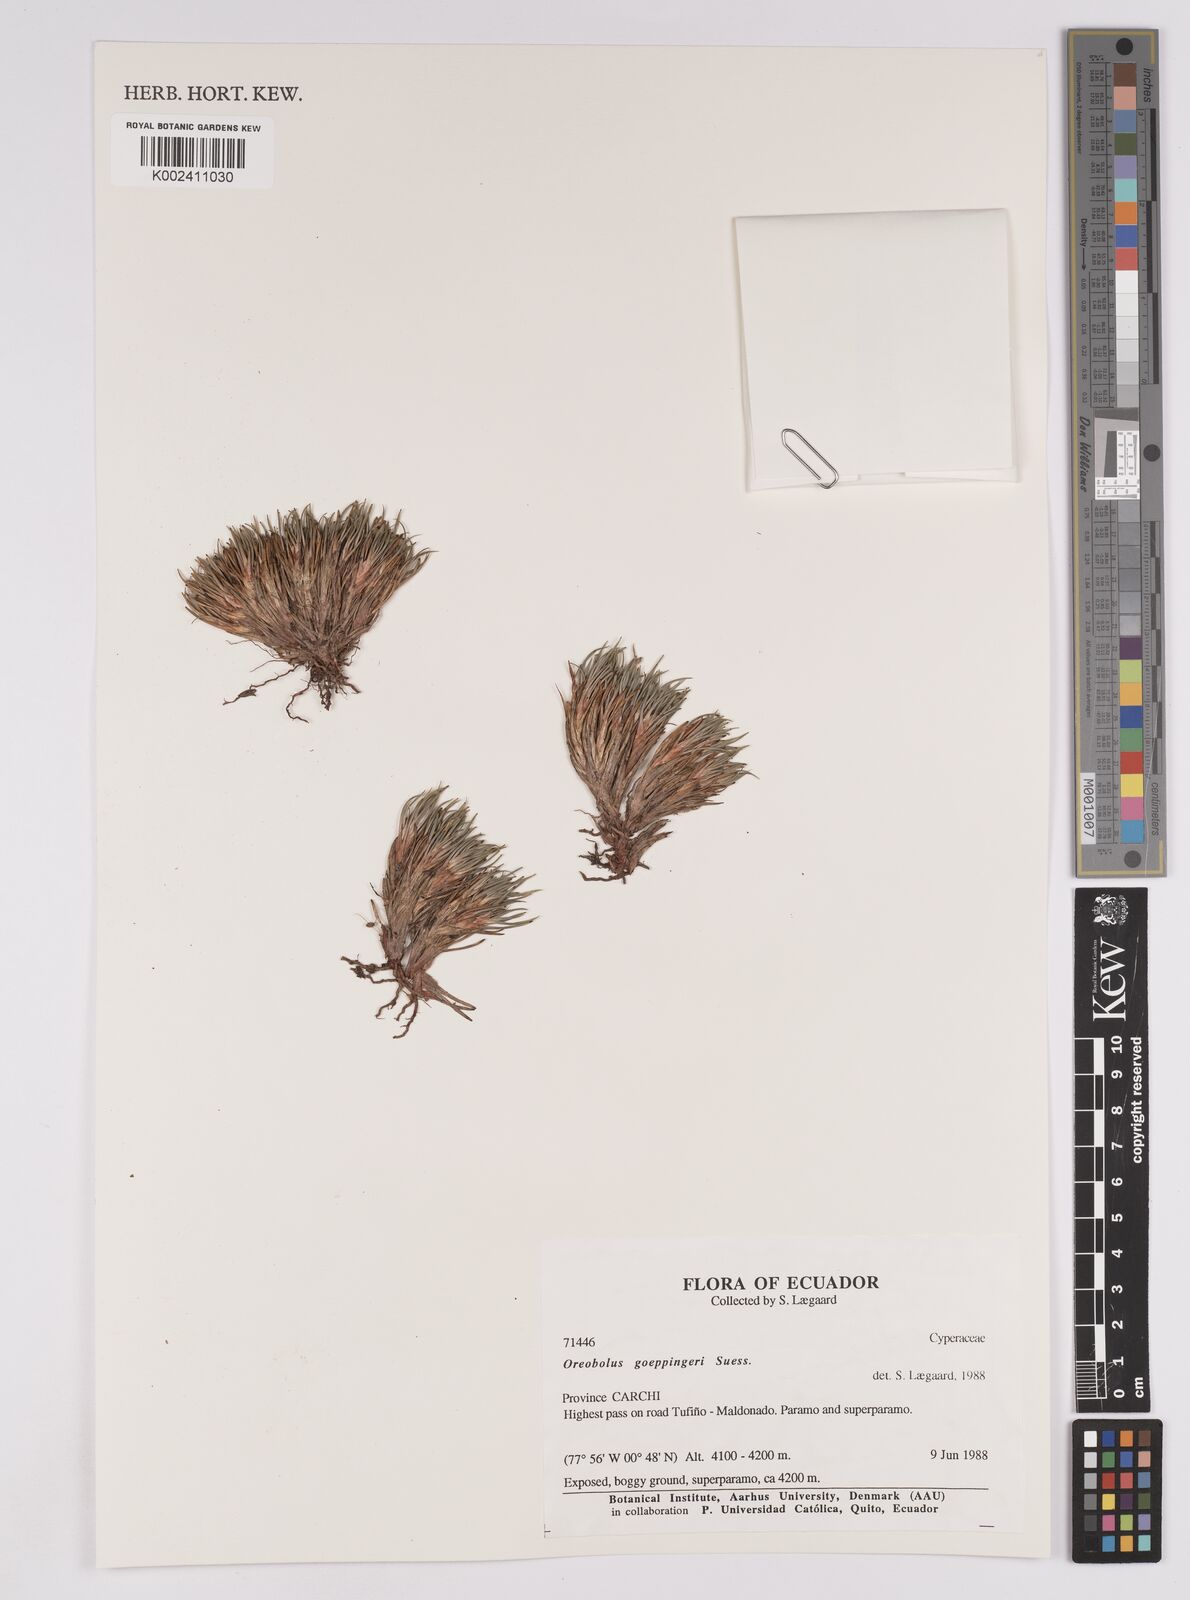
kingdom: Plantae
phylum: Tracheophyta
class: Liliopsida
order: Poales
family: Cyperaceae
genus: Oreobolus
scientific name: Oreobolus goeppingeri
